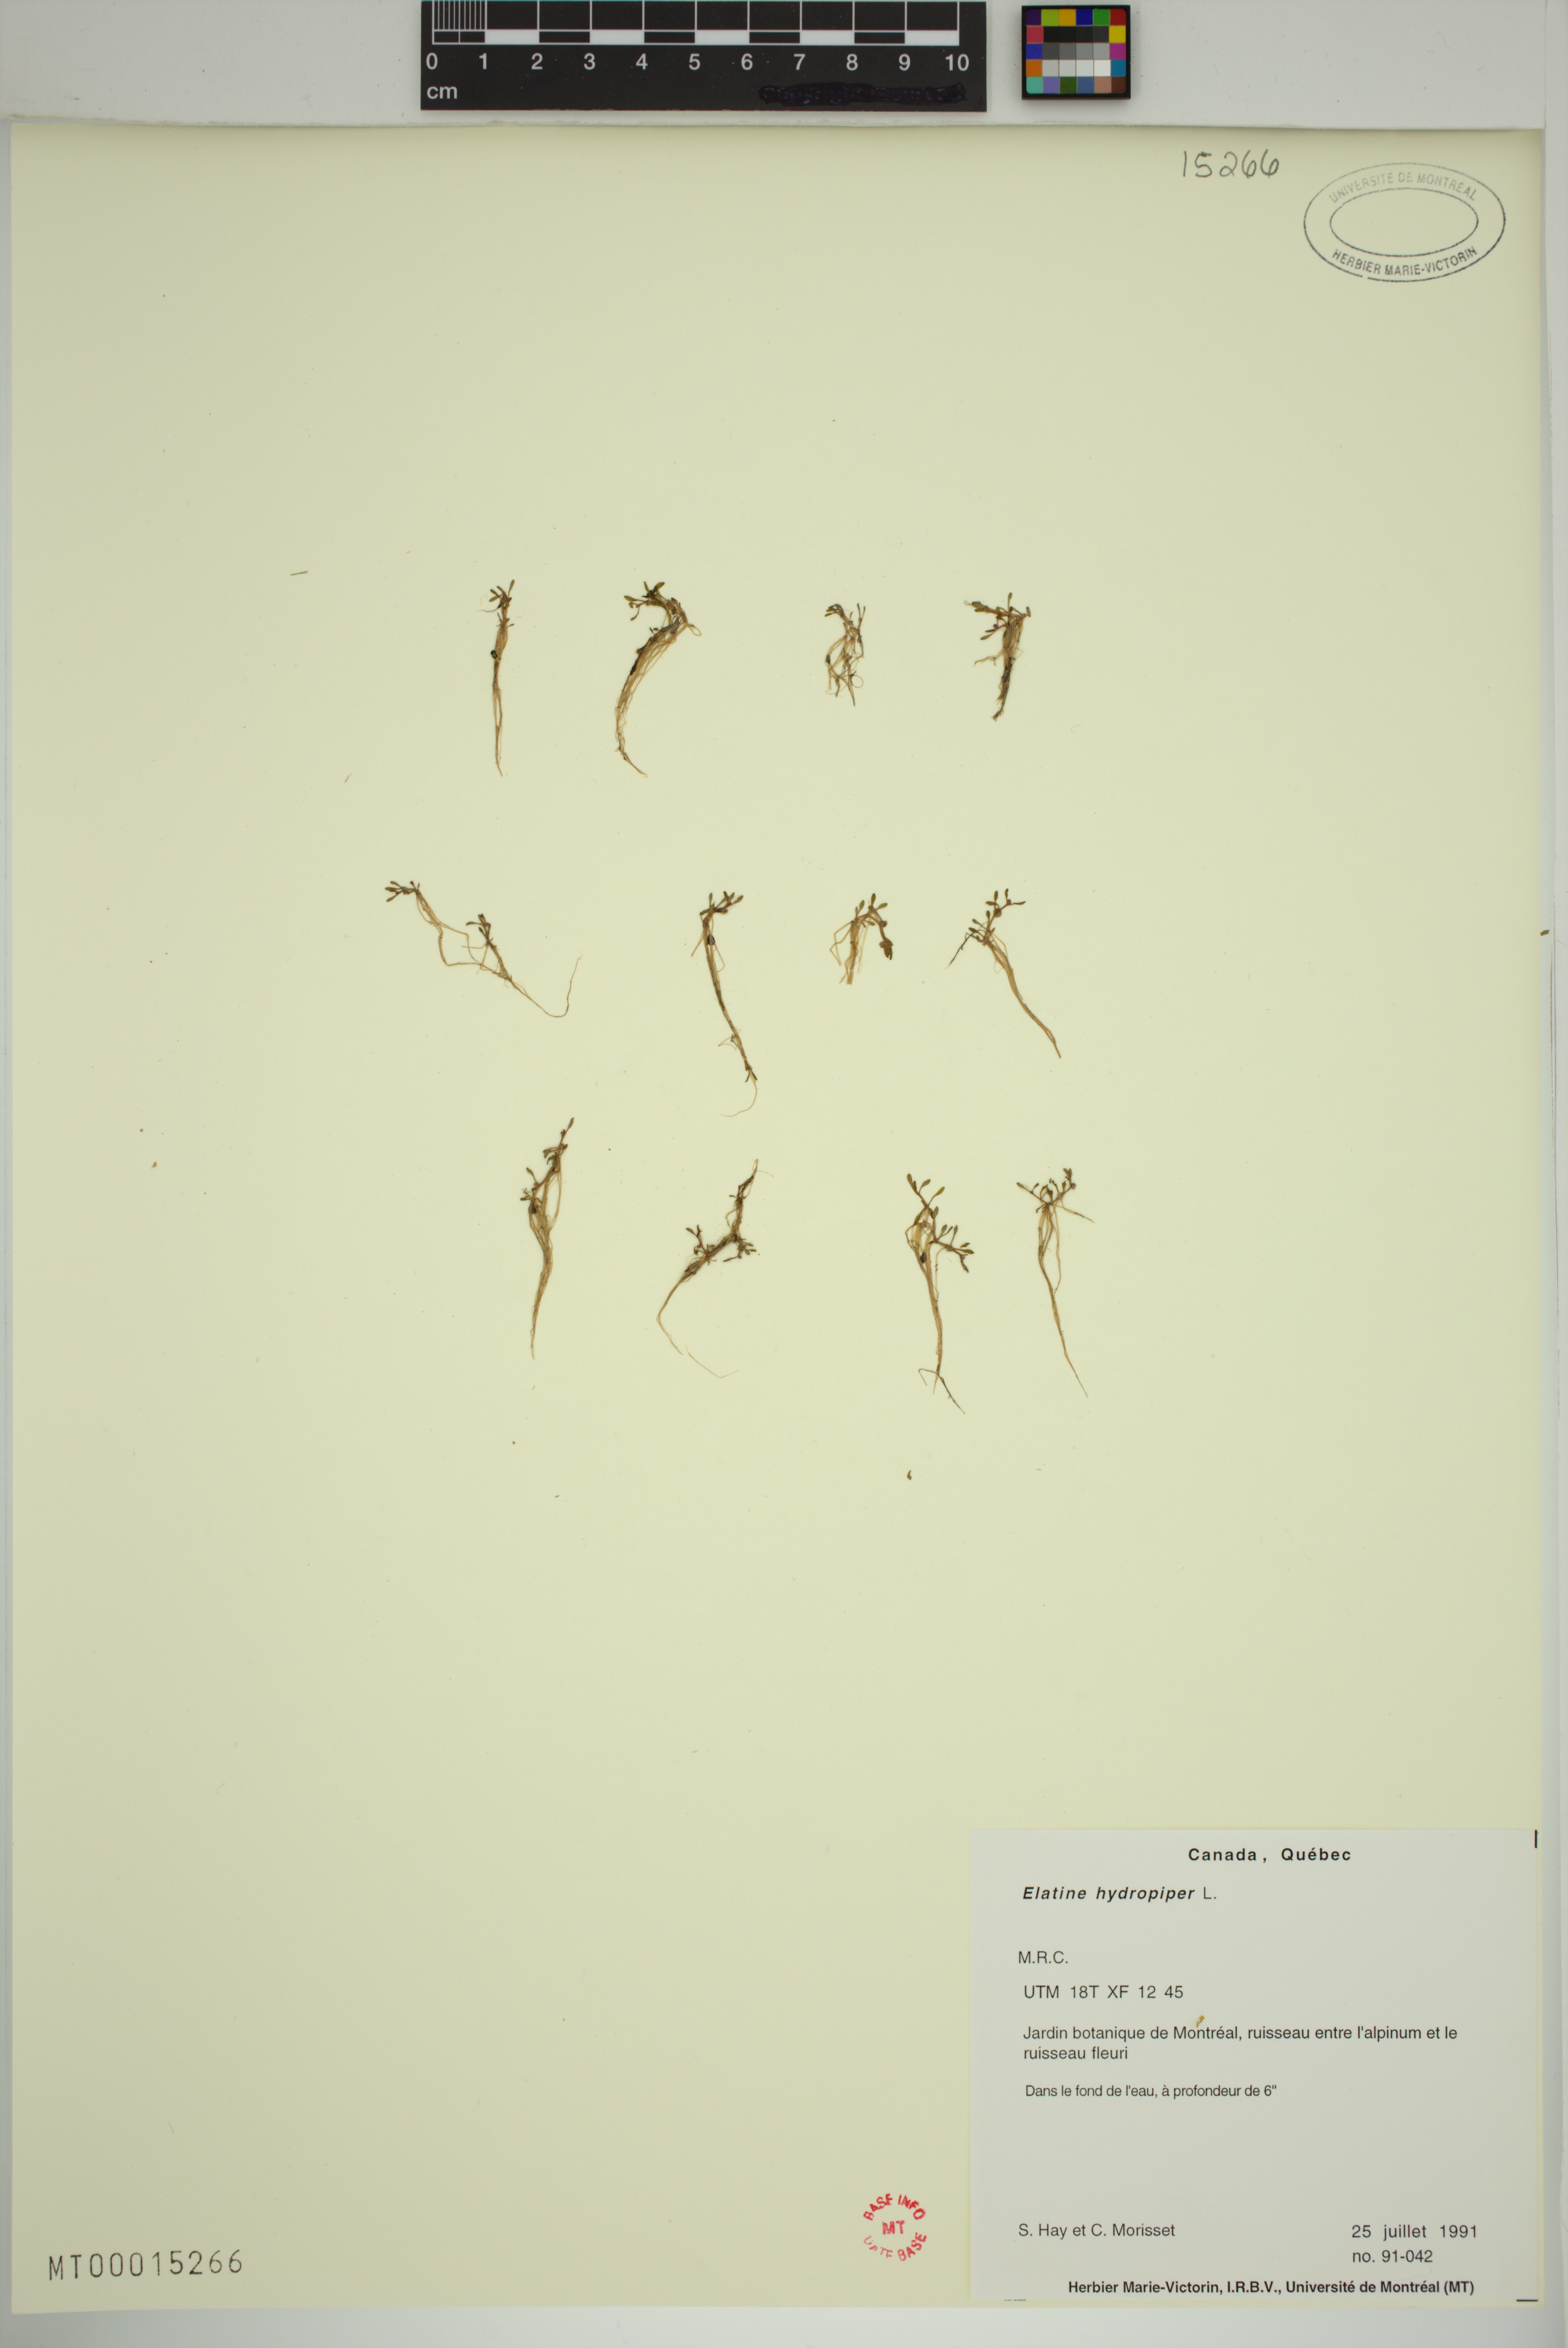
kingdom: Plantae
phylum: Tracheophyta
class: Magnoliopsida
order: Malpighiales
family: Elatinaceae
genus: Elatine
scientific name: Elatine hydropiper
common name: Eight-stamened waterwort
